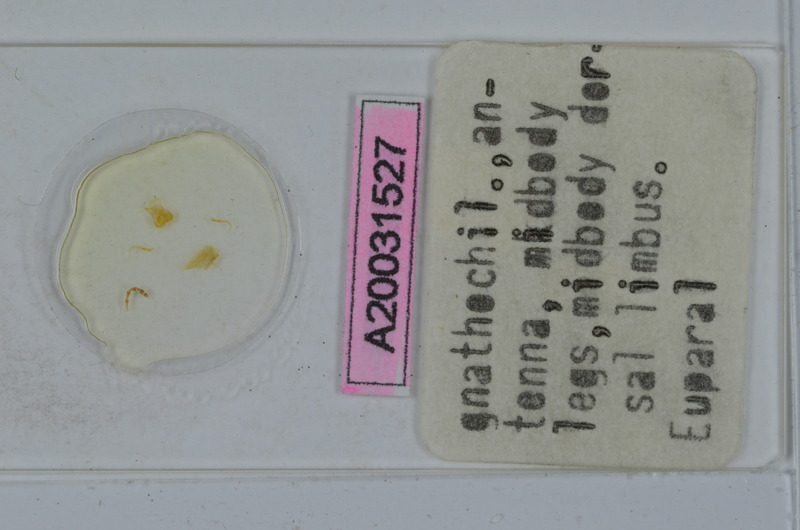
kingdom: Animalia
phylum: Arthropoda
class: Diplopoda
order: Julida
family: Julidae
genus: Calyptophyllum
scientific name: Calyptophyllum longiventre
